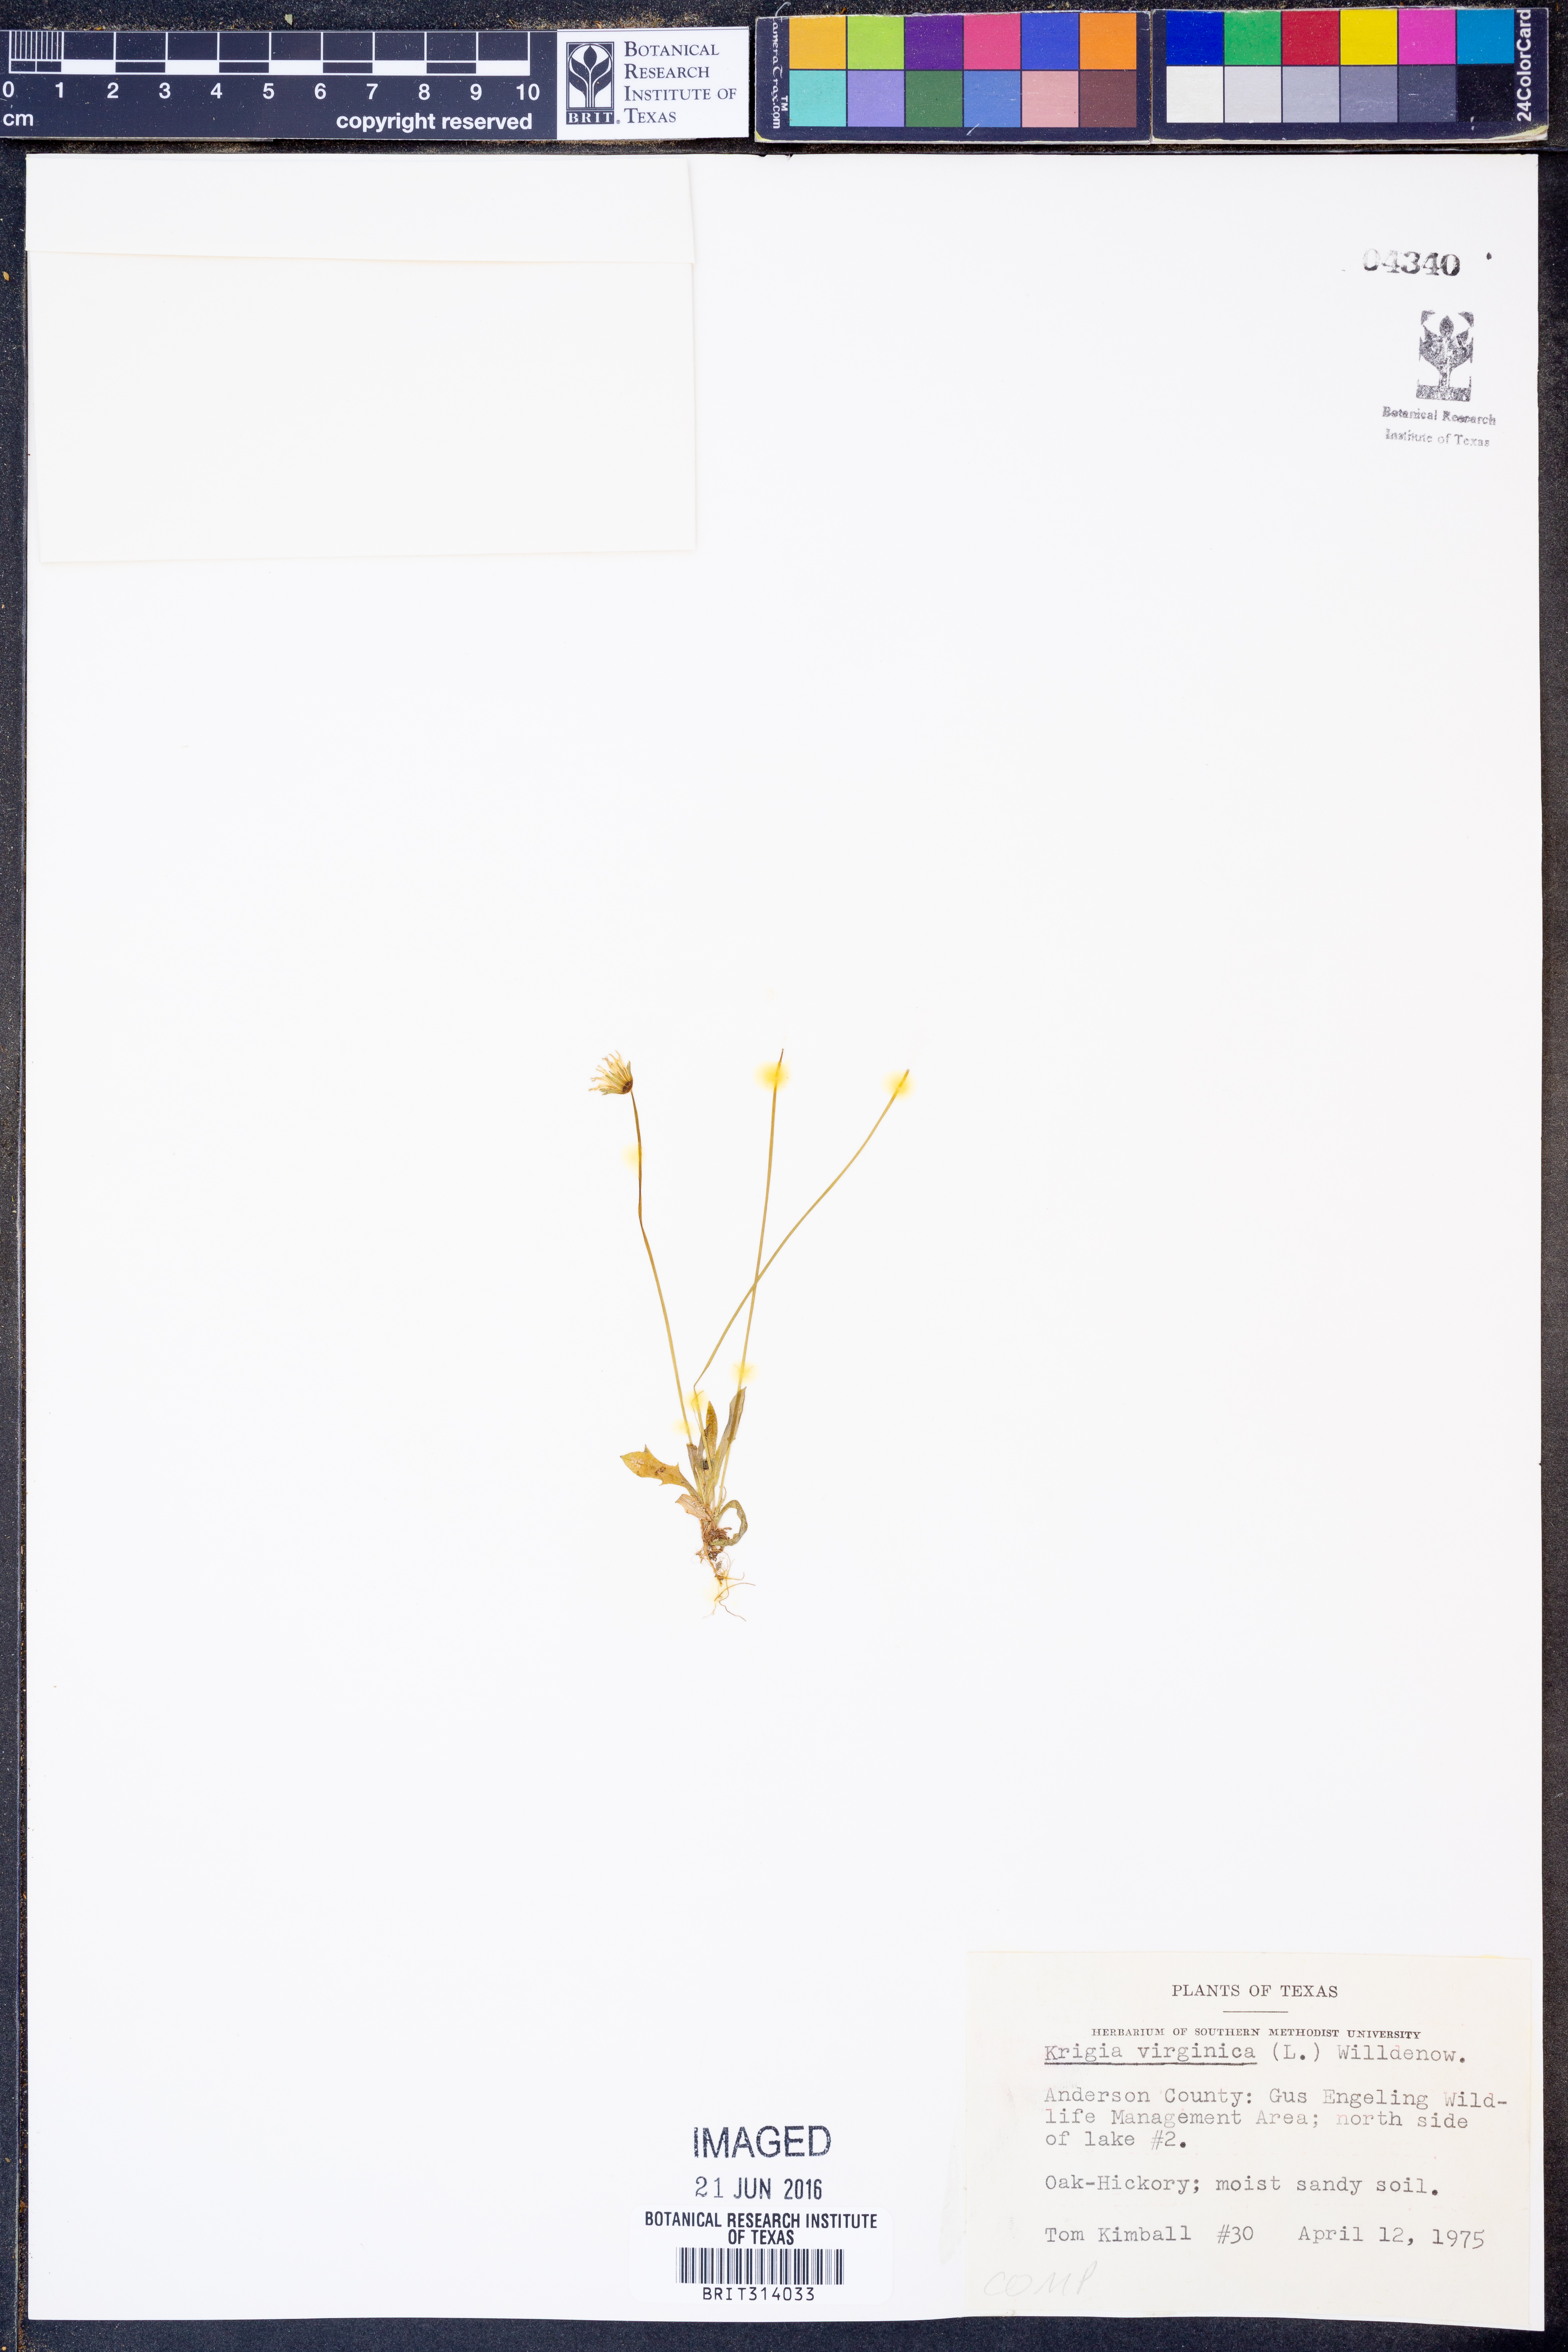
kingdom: Plantae
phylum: Tracheophyta
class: Magnoliopsida
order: Asterales
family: Asteraceae
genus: Krigia
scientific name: Krigia virginica
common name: Virginia dwarf-dandelion
